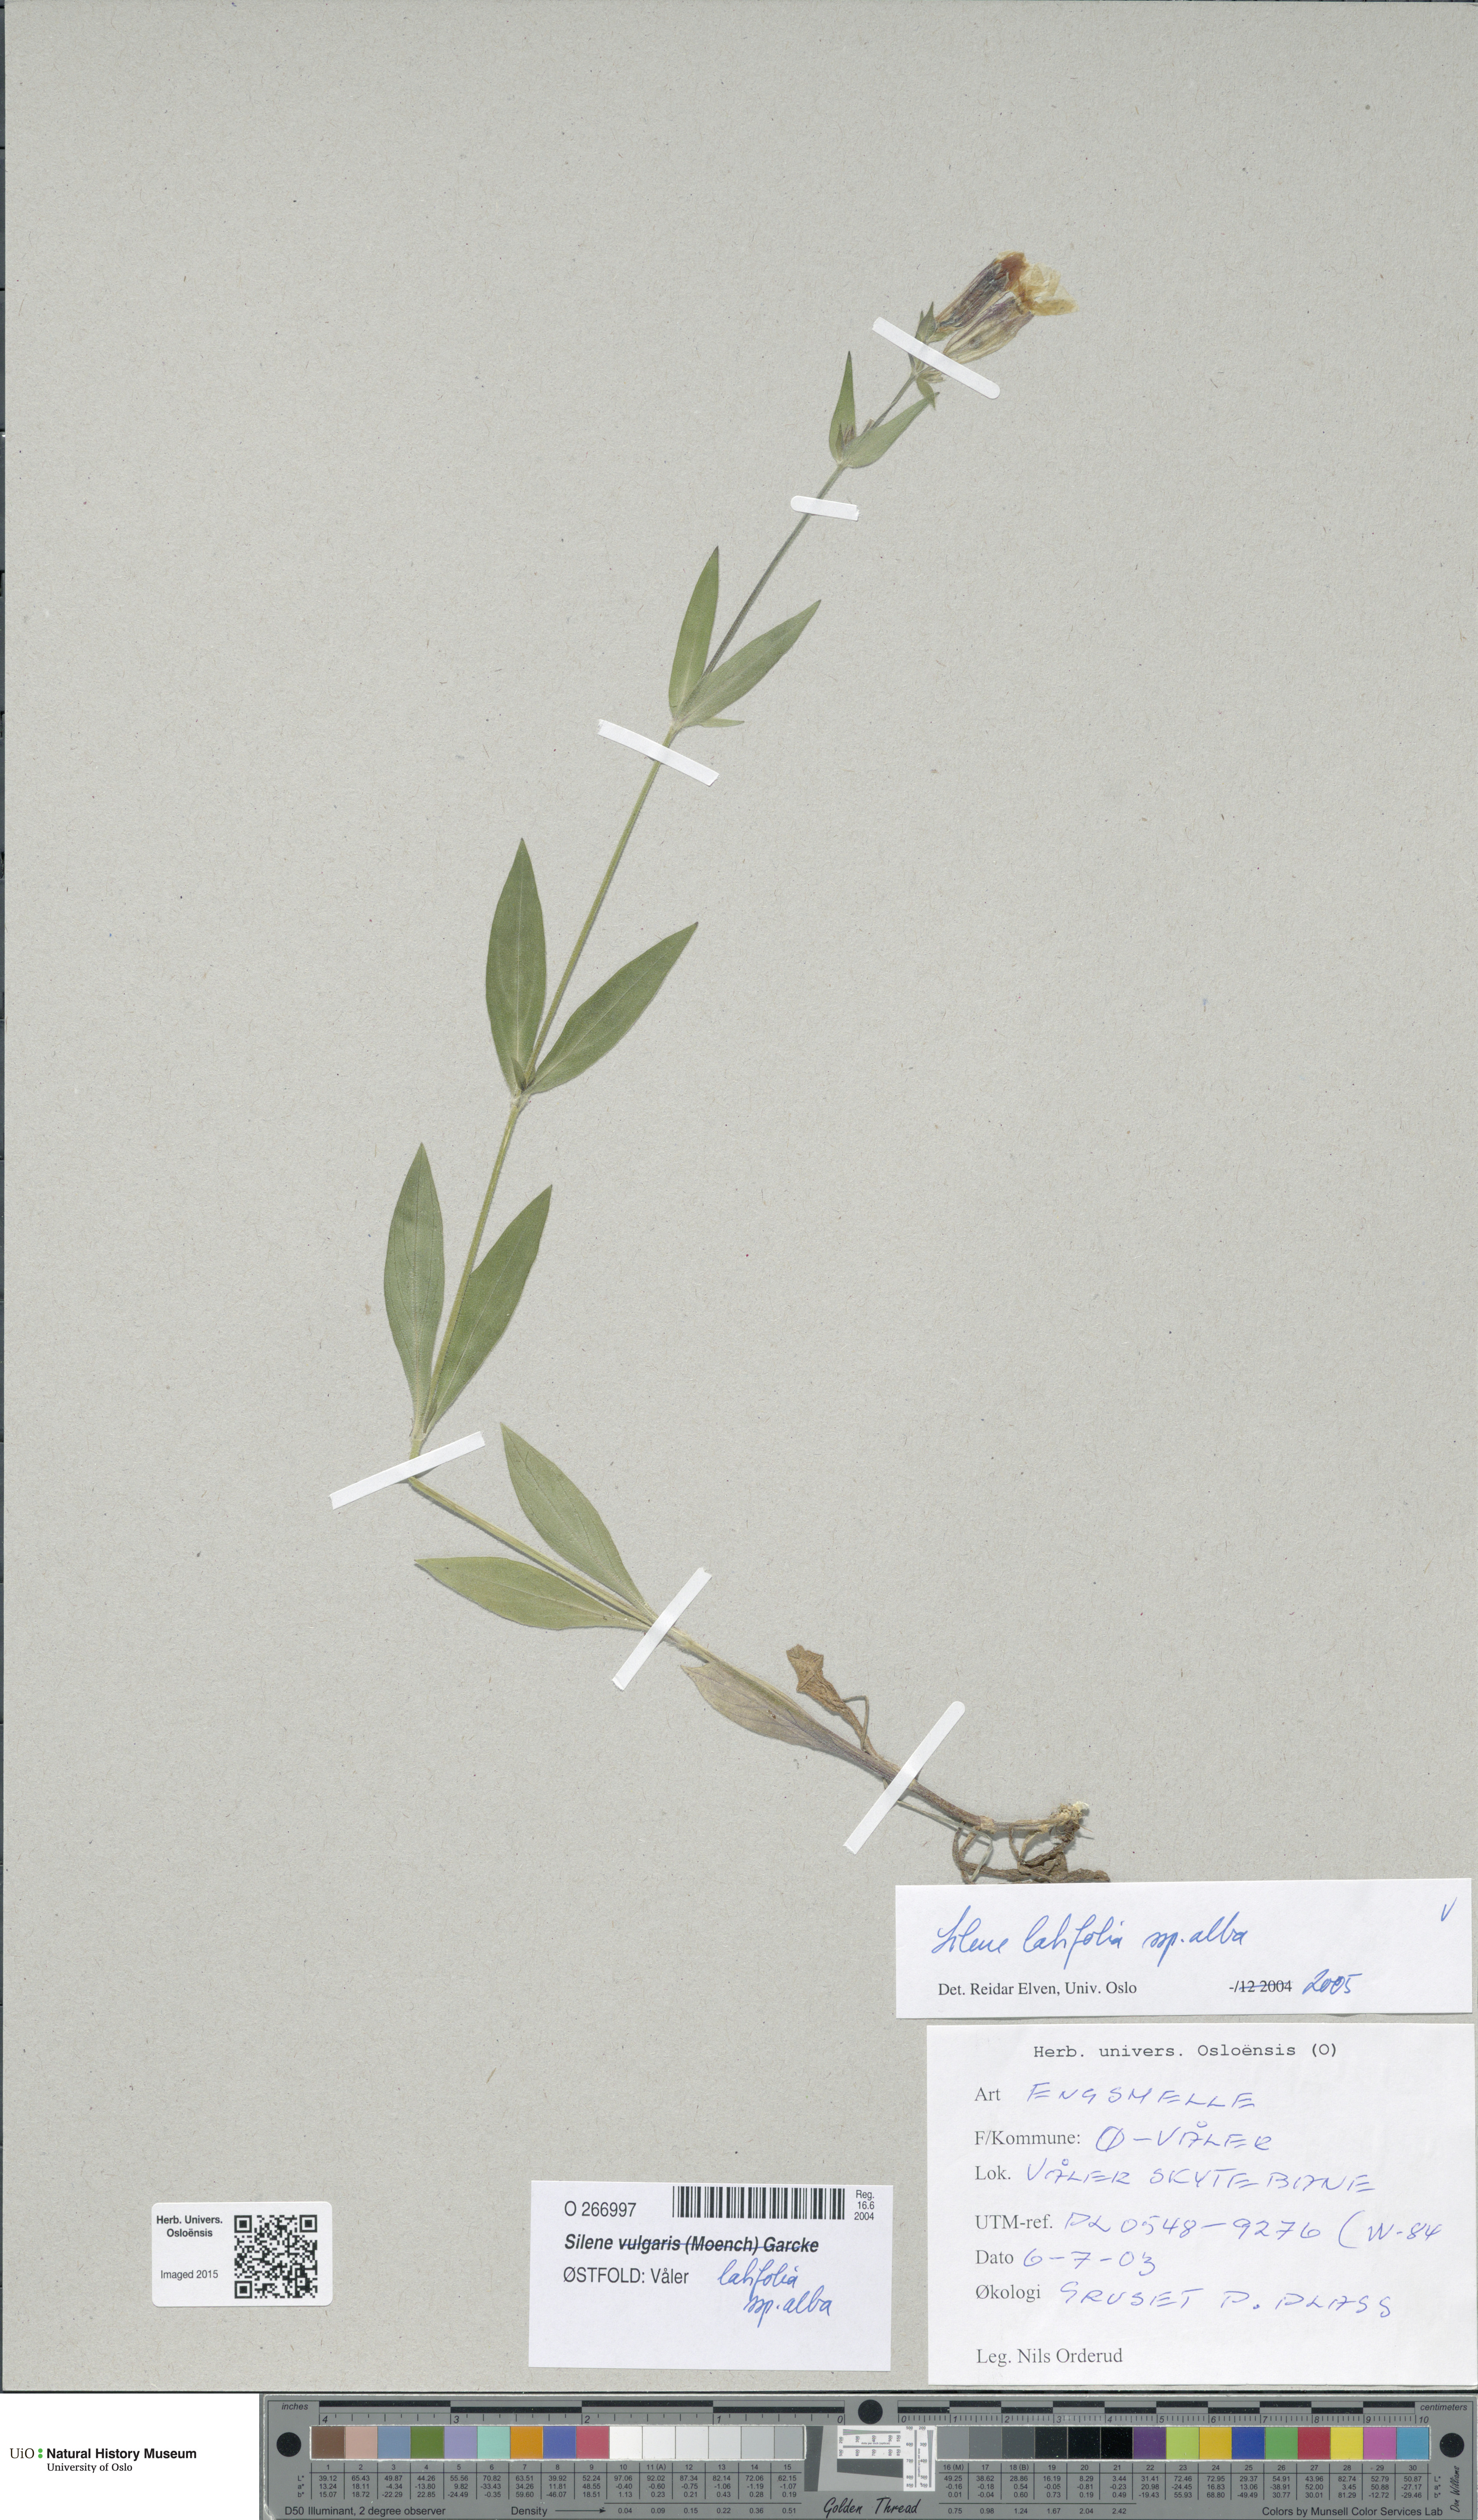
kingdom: Plantae
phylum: Tracheophyta
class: Magnoliopsida
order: Caryophyllales
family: Caryophyllaceae
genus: Silene
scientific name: Silene latifolia
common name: White campion
